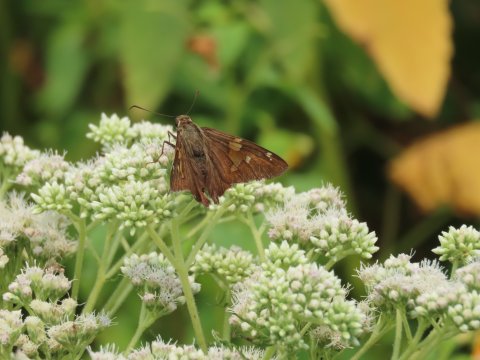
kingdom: Animalia
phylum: Arthropoda
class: Insecta
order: Lepidoptera
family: Hesperiidae
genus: Epargyreus
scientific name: Epargyreus clarus
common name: Silver-spotted Skipper
